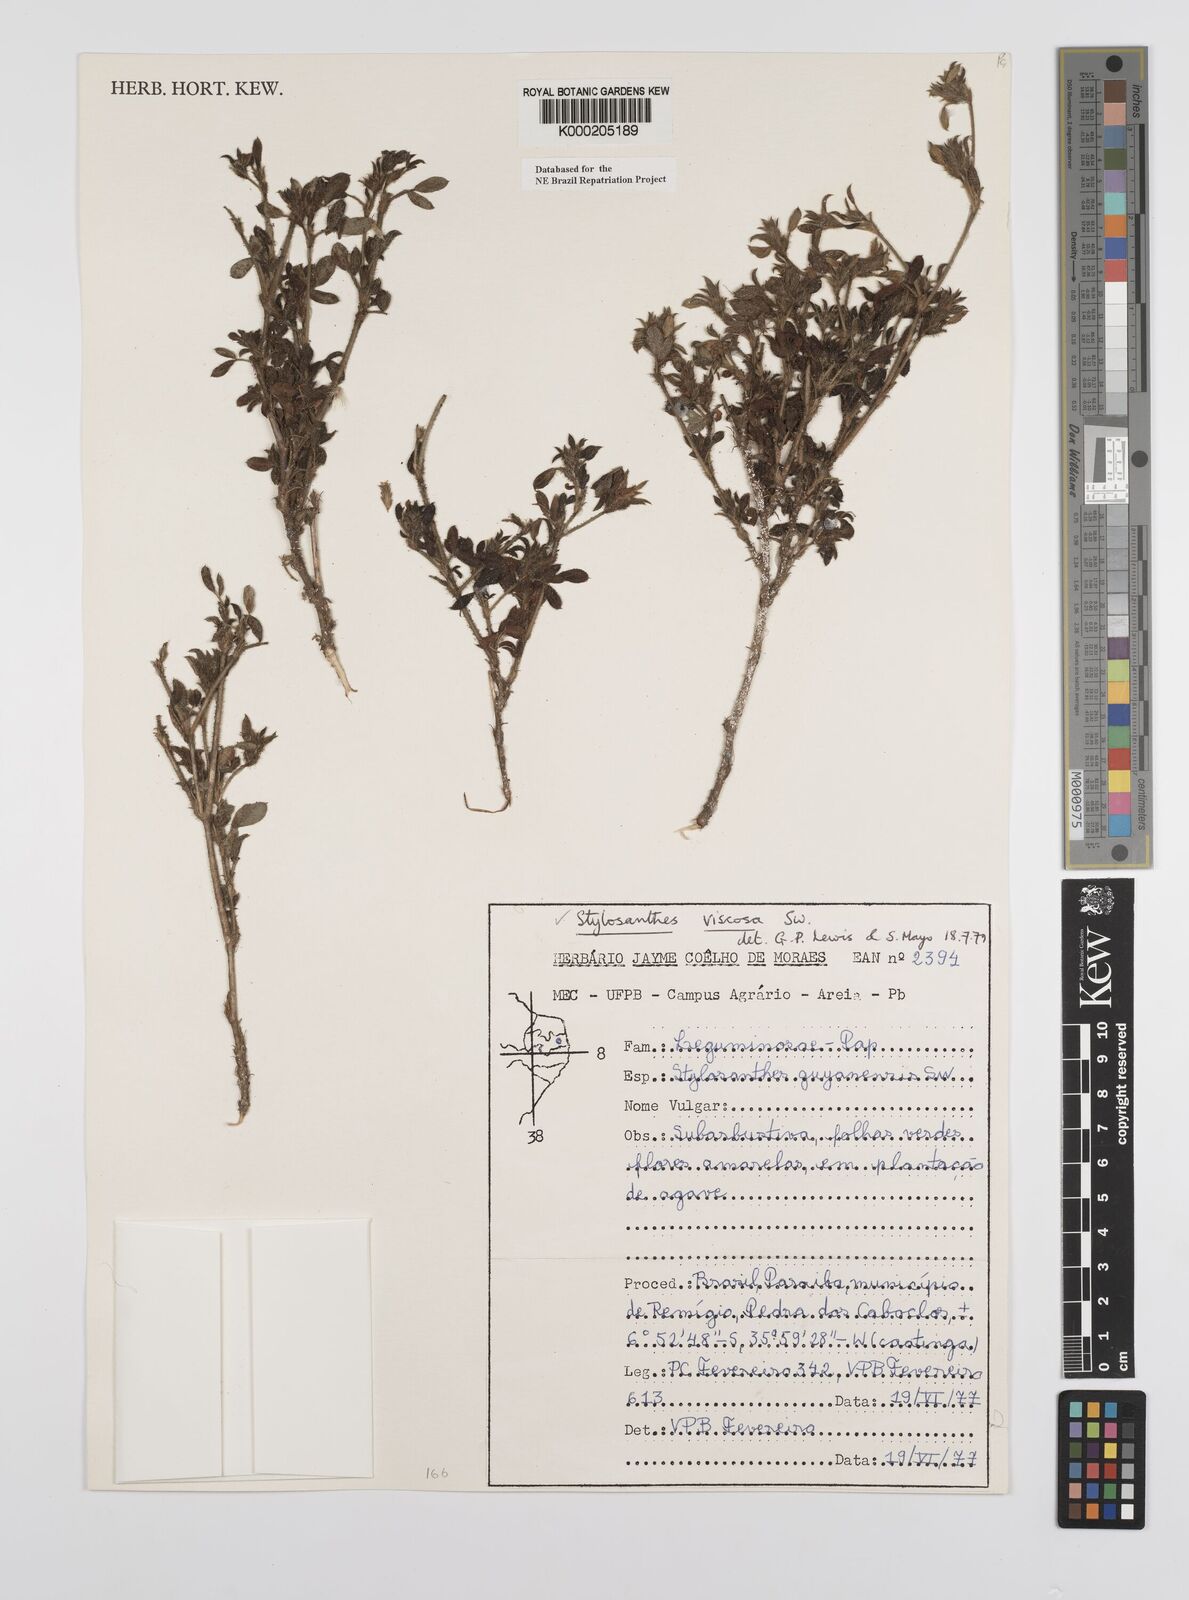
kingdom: Plantae
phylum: Tracheophyta
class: Magnoliopsida
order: Fabales
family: Fabaceae
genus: Stylosanthes
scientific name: Stylosanthes viscosa
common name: Viscid pencil-flower
